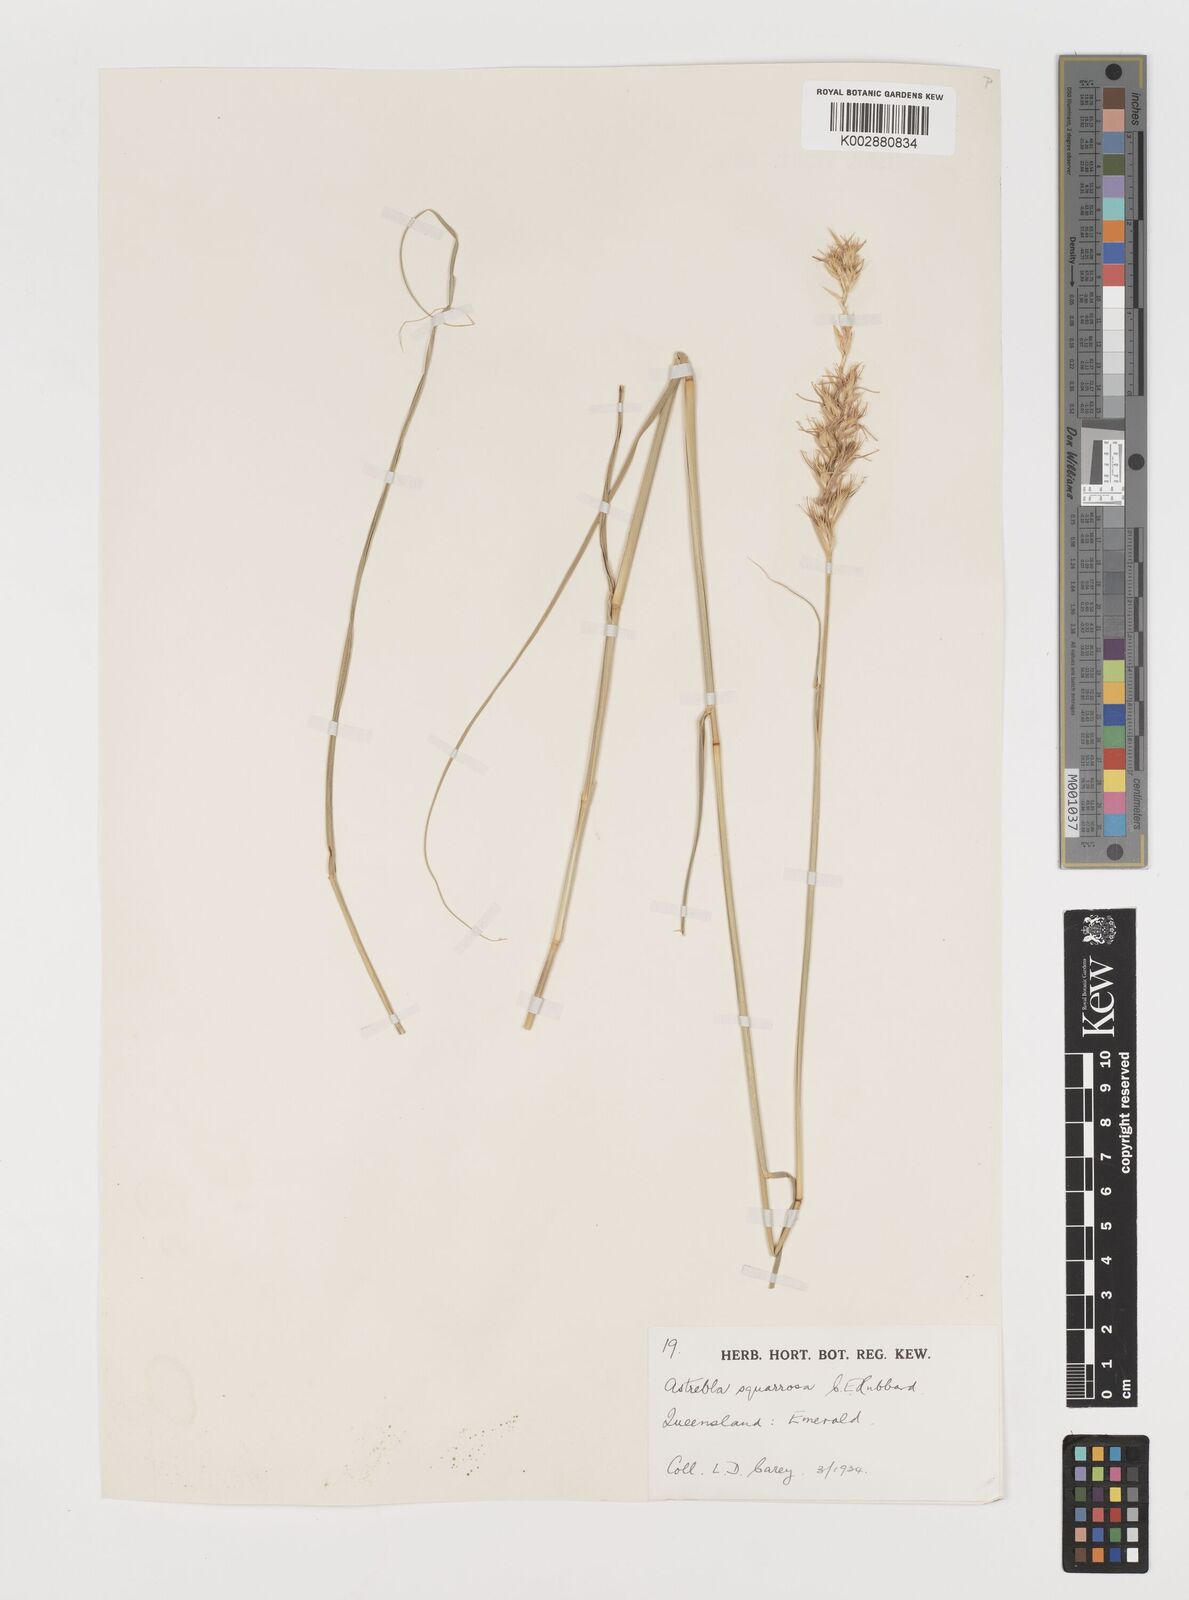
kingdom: Plantae
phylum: Tracheophyta
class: Liliopsida
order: Poales
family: Poaceae
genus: Astrebla
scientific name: Astrebla squarrosa
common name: Wheat-ear mitchell grass
